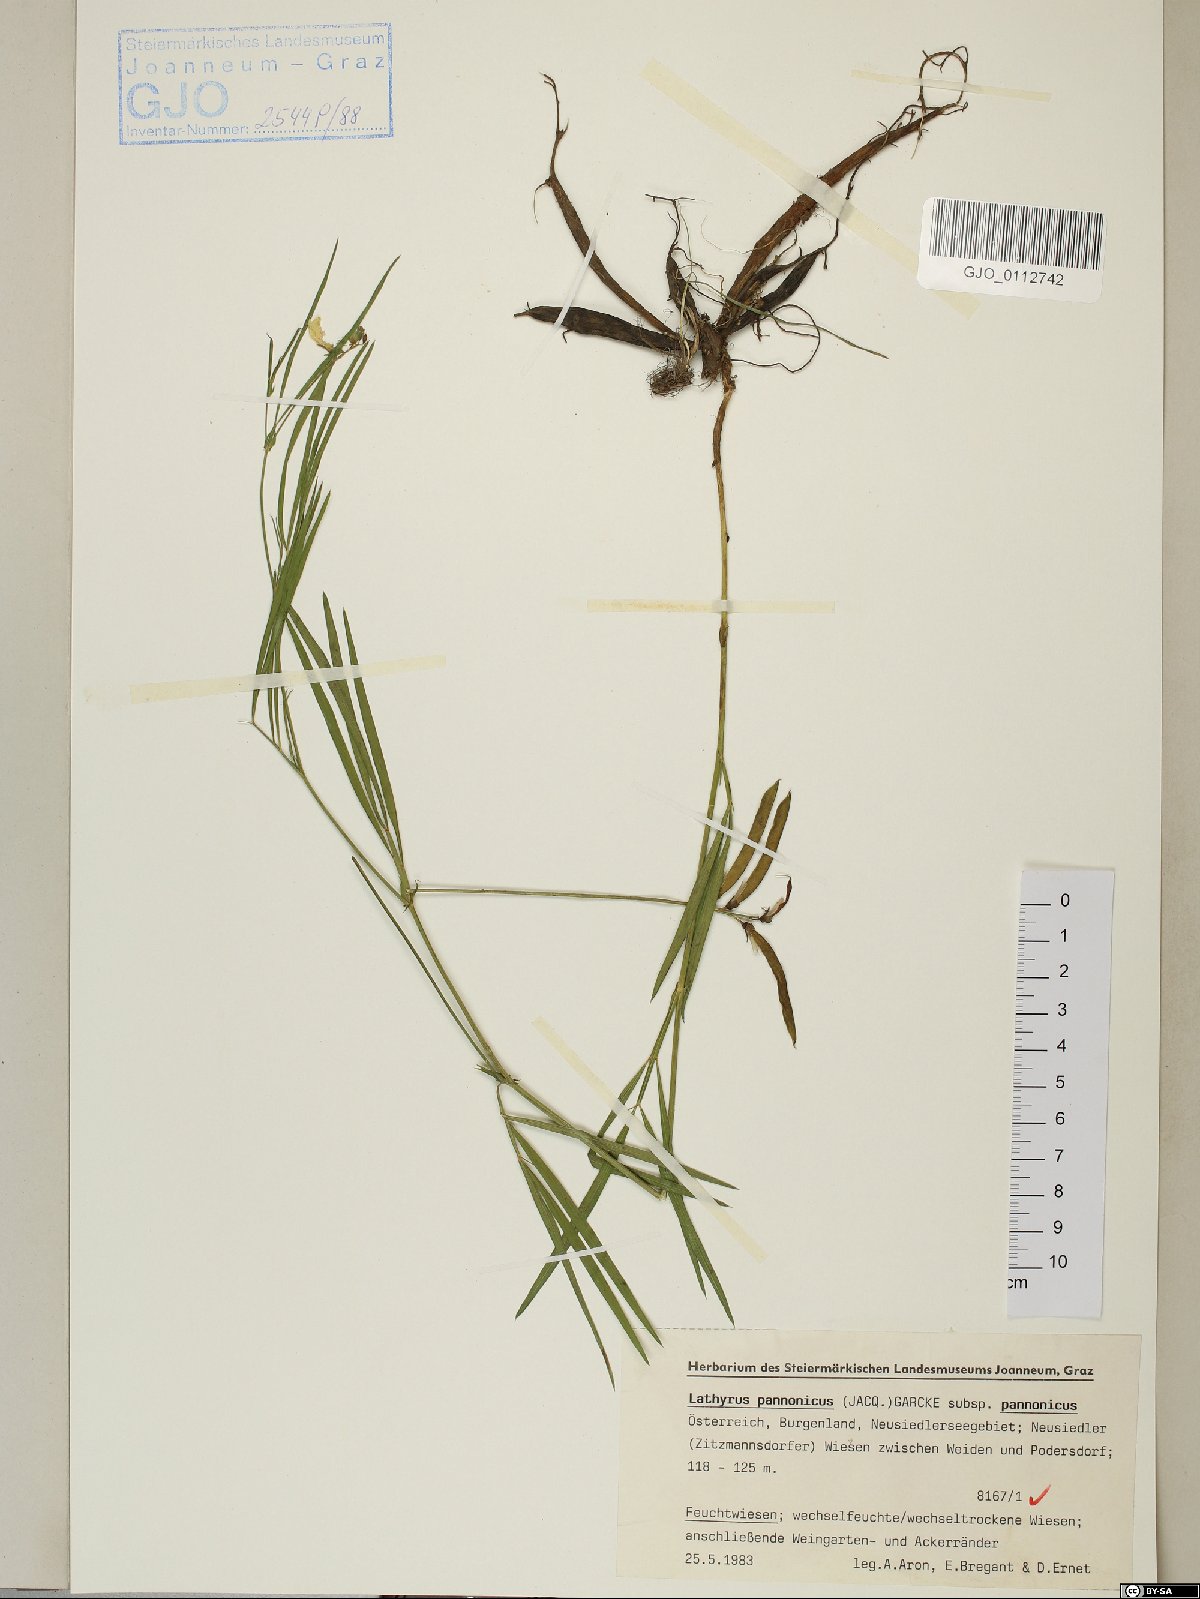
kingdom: Plantae
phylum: Tracheophyta
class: Magnoliopsida
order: Fabales
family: Fabaceae
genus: Lathyrus
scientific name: Lathyrus pannonicus
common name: Pea
